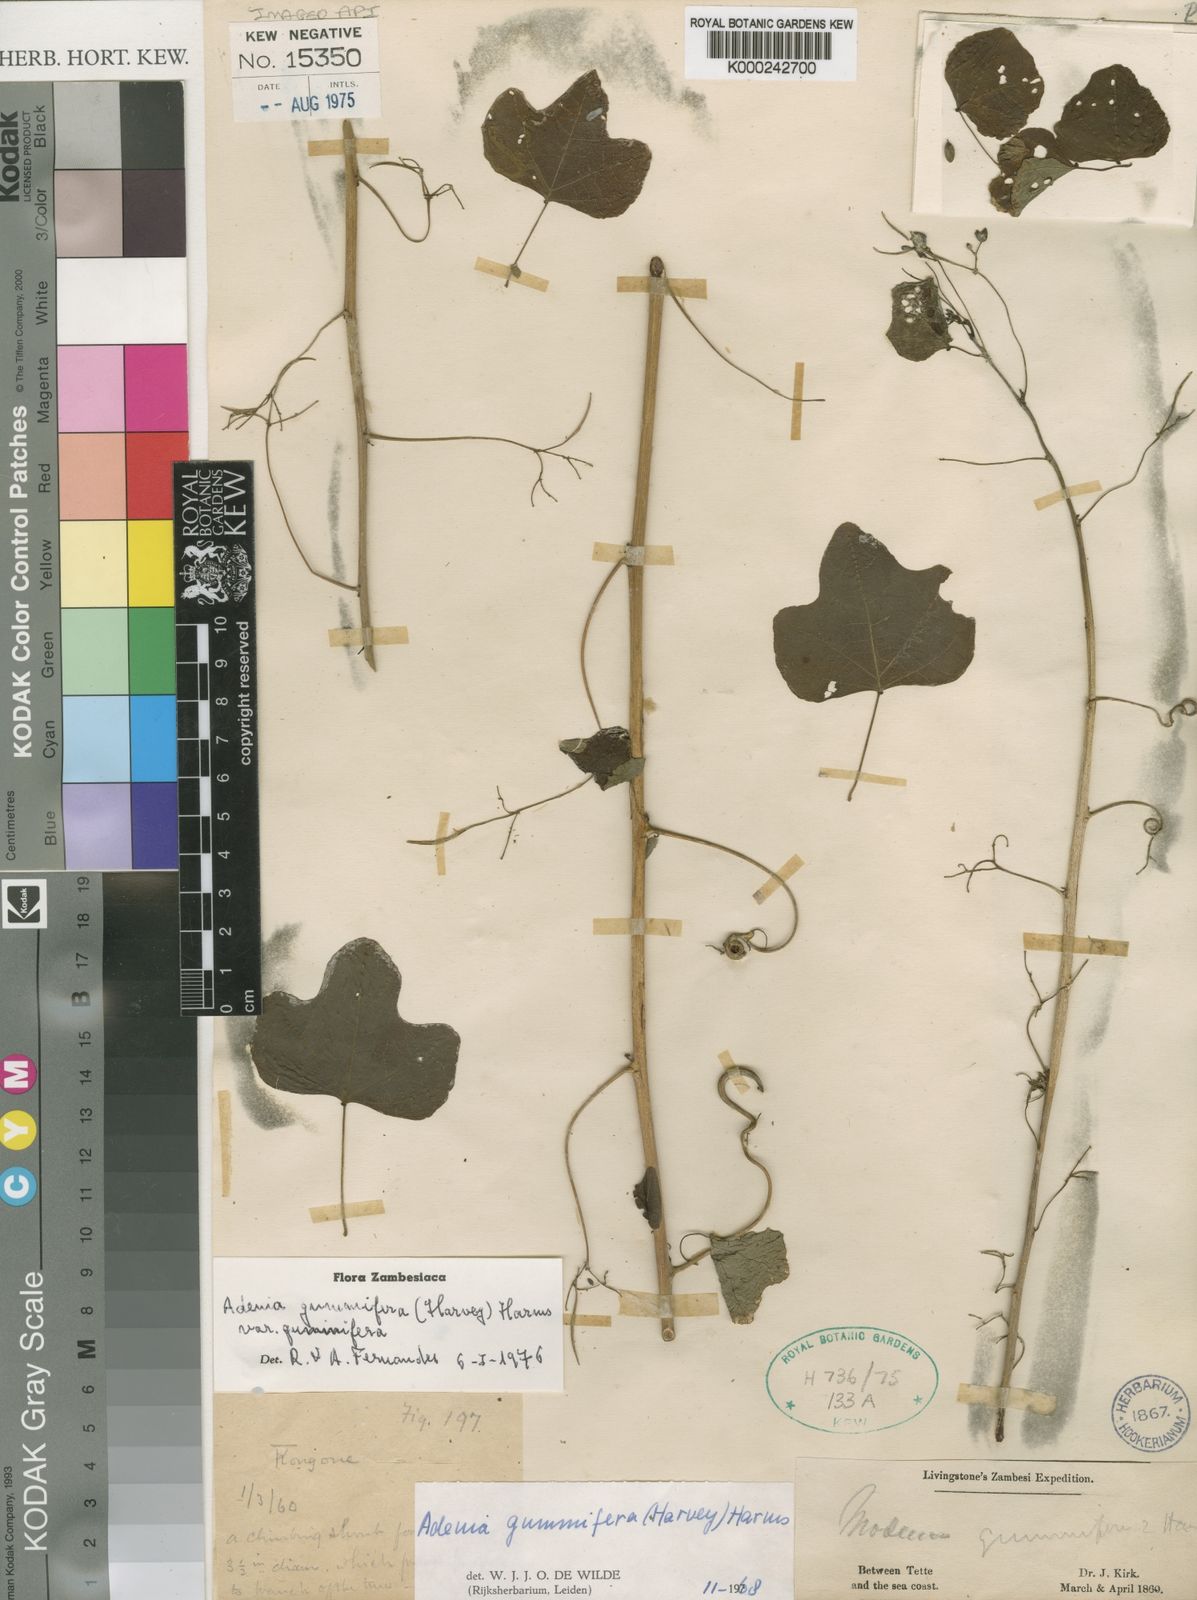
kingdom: Plantae
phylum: Tracheophyta
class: Magnoliopsida
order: Malpighiales
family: Passifloraceae
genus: Adenia
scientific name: Adenia cissampeloides
